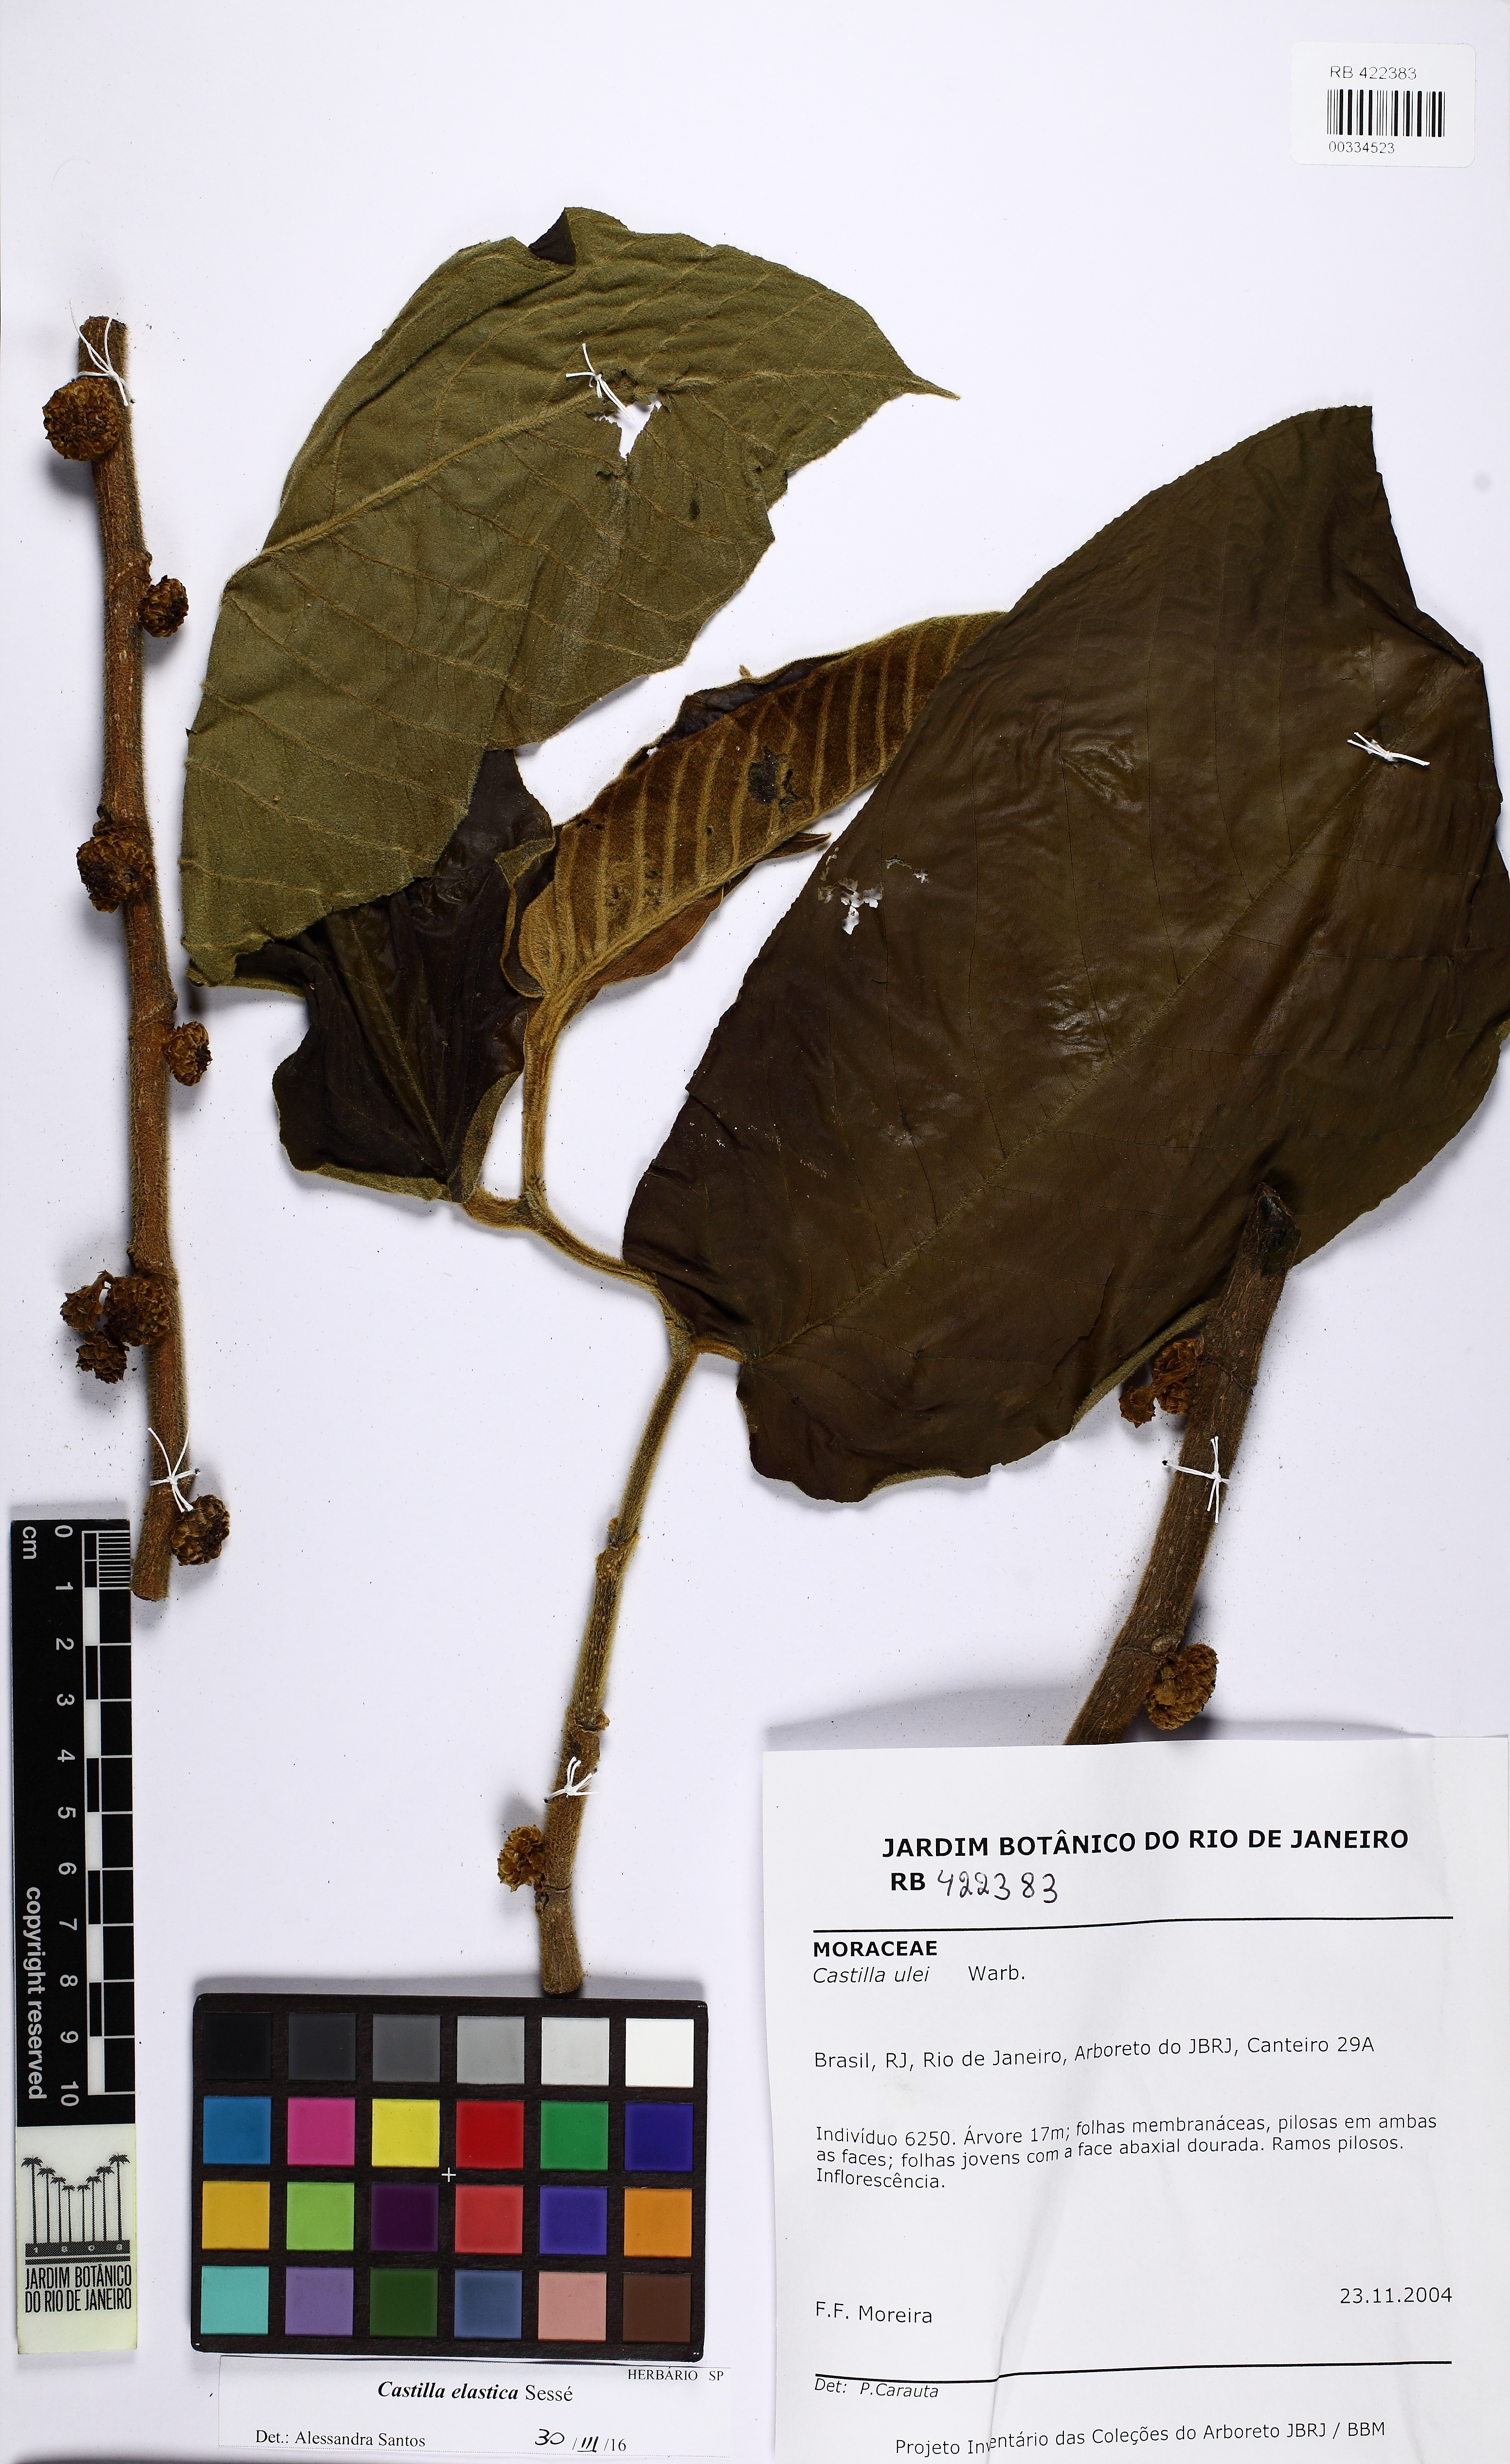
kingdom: Plantae
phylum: Tracheophyta
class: Magnoliopsida
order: Rosales
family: Moraceae
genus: Castilla
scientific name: Castilla elastica
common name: Castilla rubber
